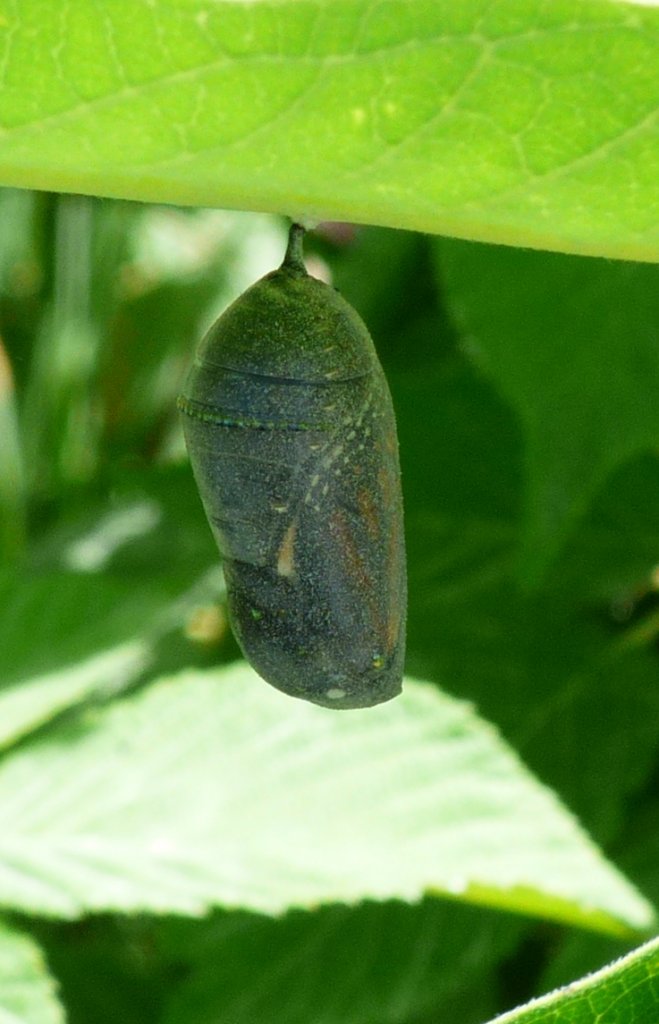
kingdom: Animalia
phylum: Arthropoda
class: Insecta
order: Lepidoptera
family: Nymphalidae
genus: Danaus
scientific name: Danaus plexippus
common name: Monarch
